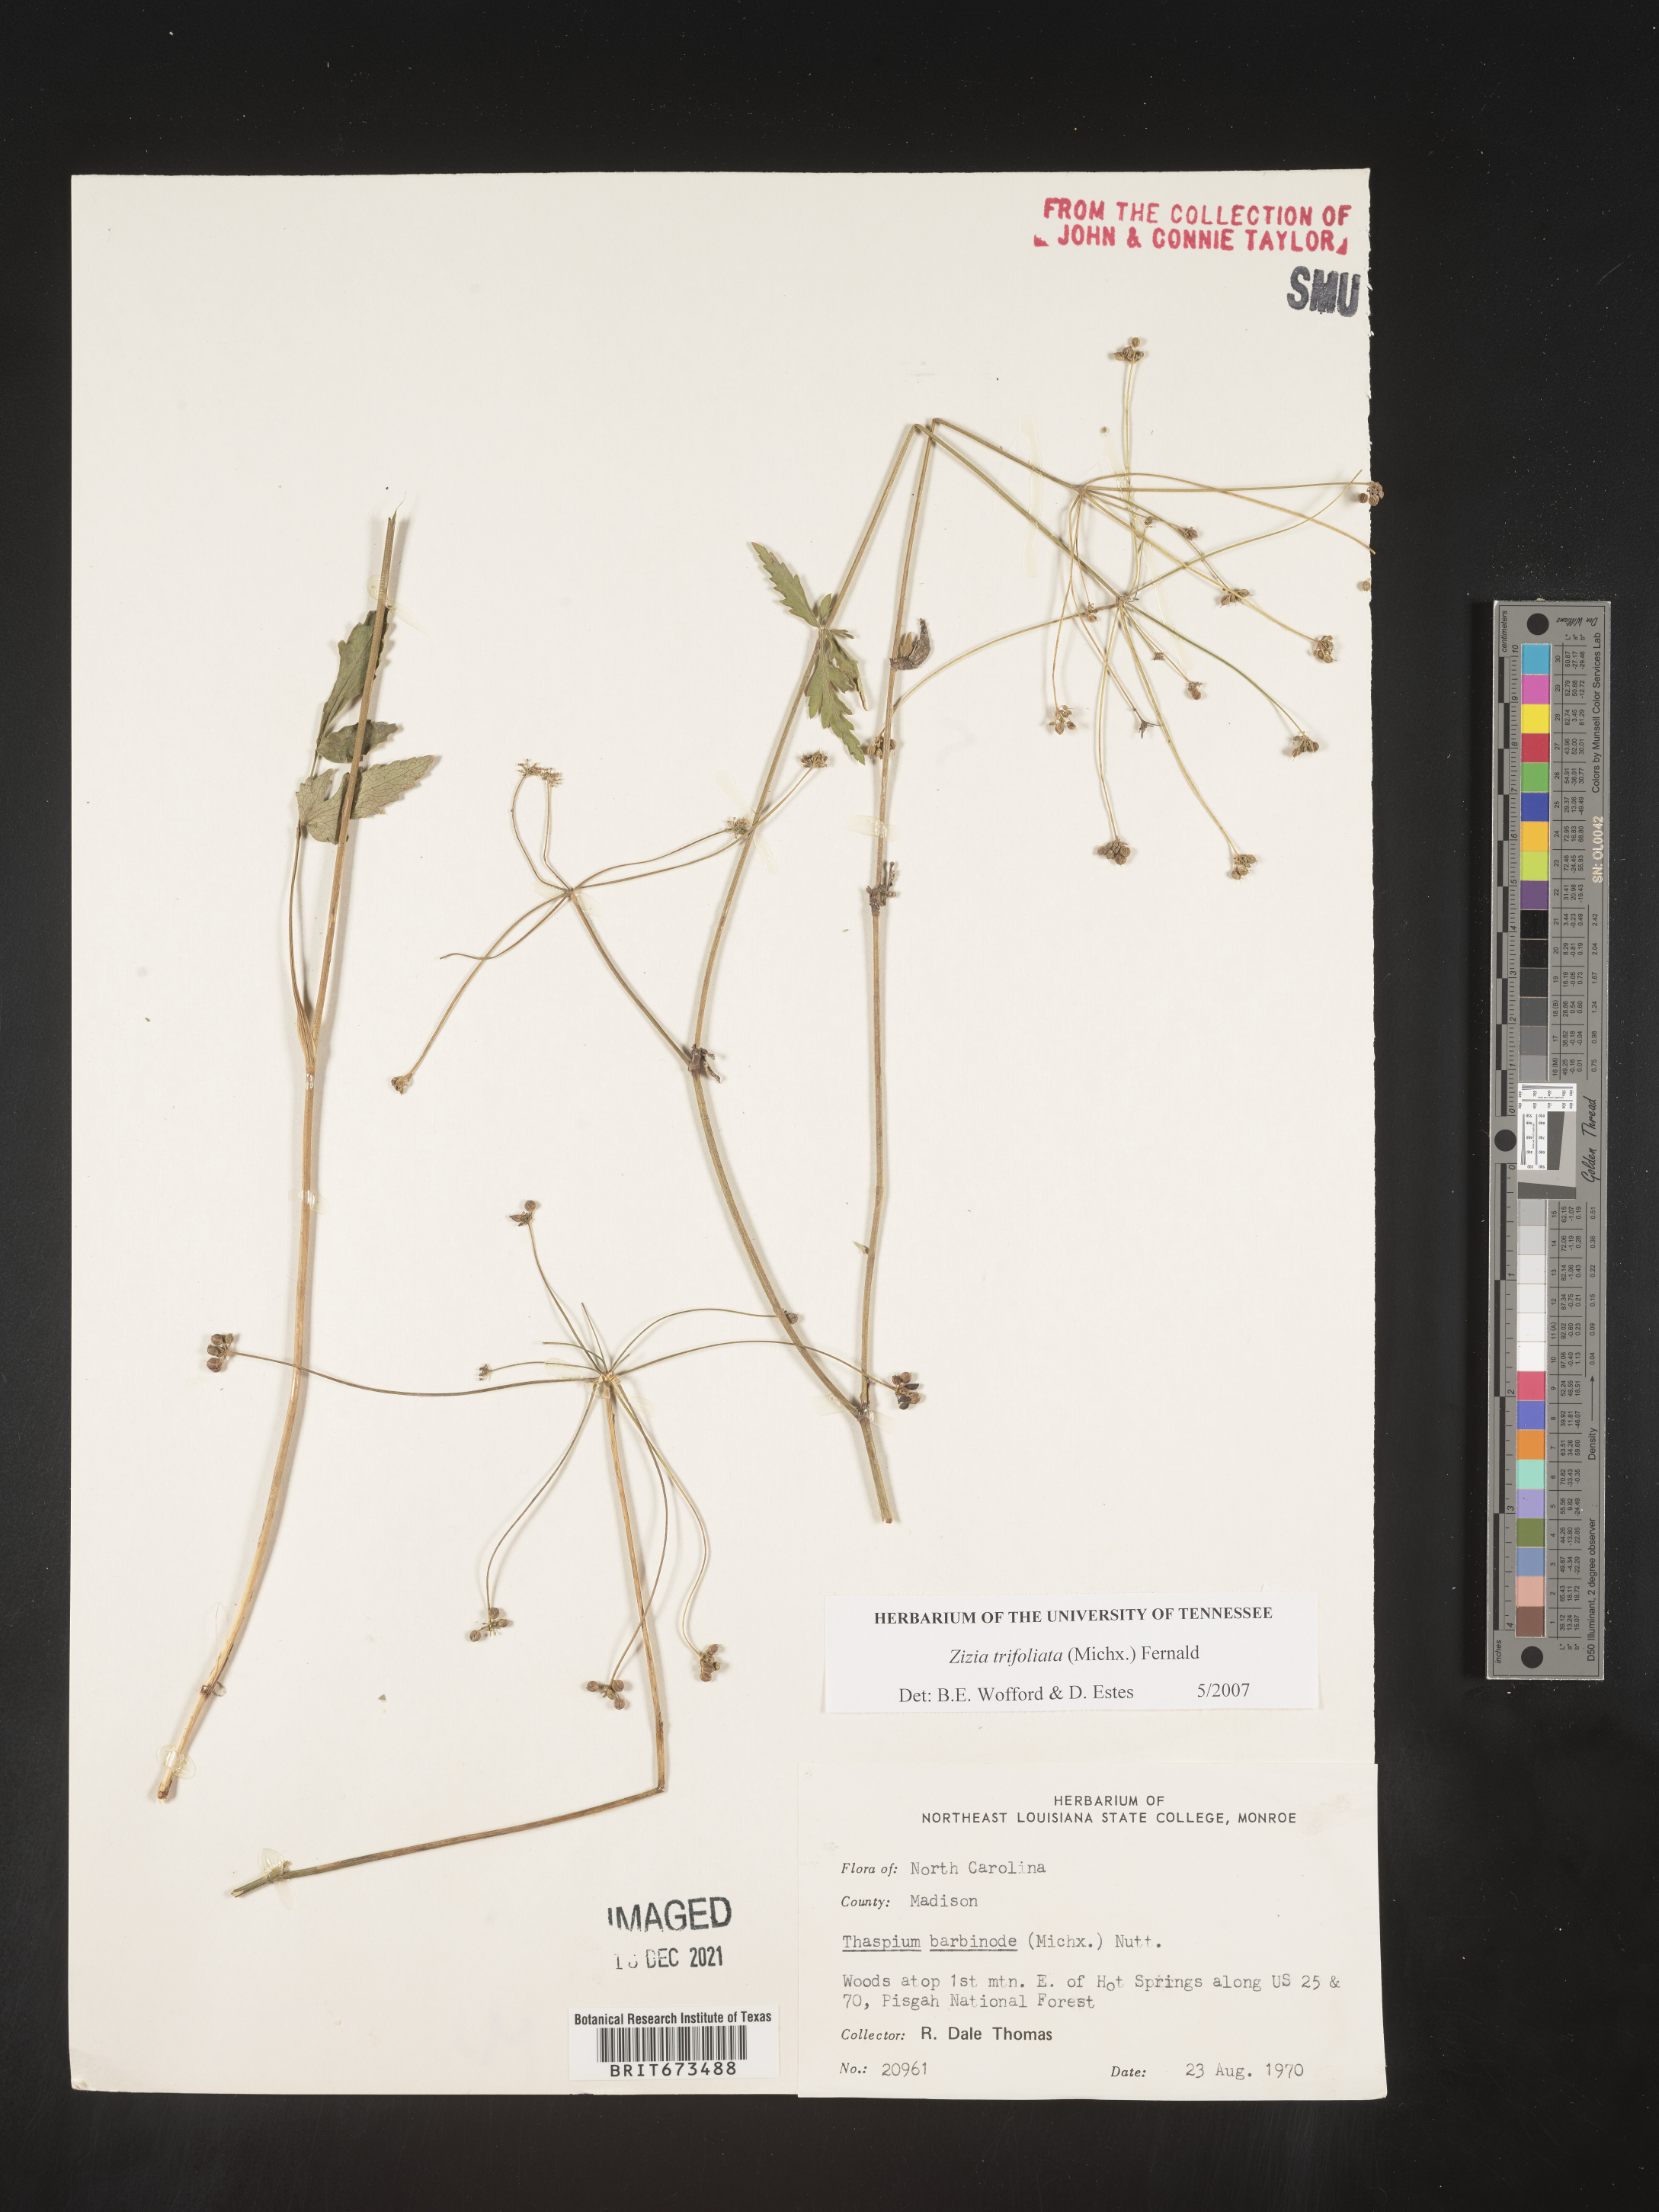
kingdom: Plantae
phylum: Tracheophyta
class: Magnoliopsida
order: Apiales
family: Apiaceae
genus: Zizia
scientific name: Zizia trifoliata
